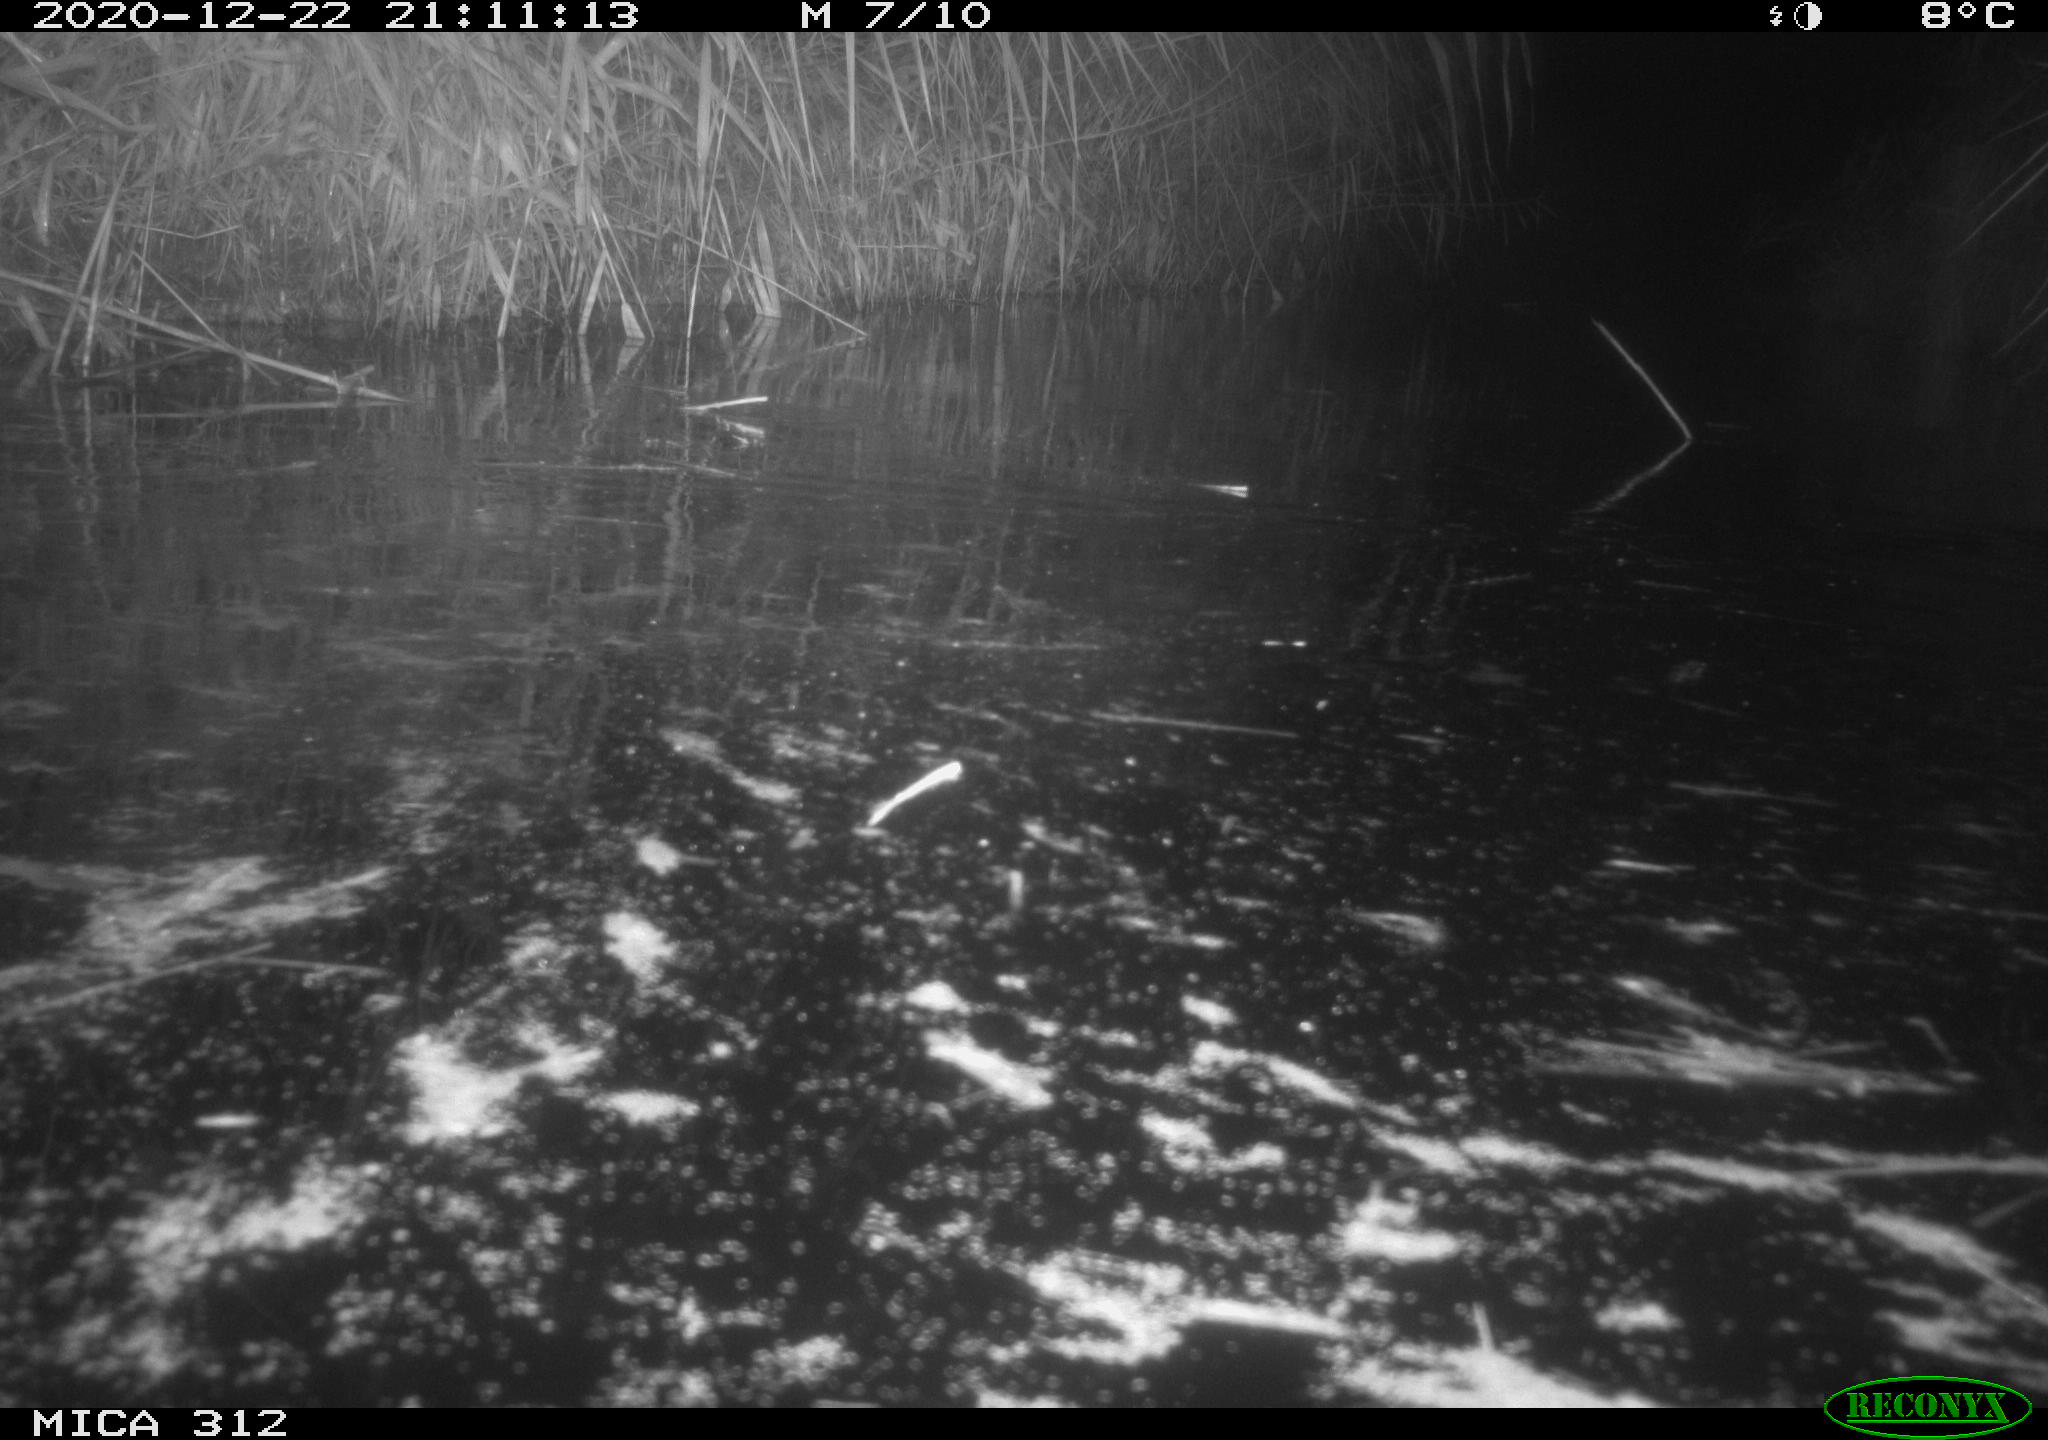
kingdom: Animalia
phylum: Chordata
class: Mammalia
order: Rodentia
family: Muridae
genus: Rattus
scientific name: Rattus norvegicus
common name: Brown rat
